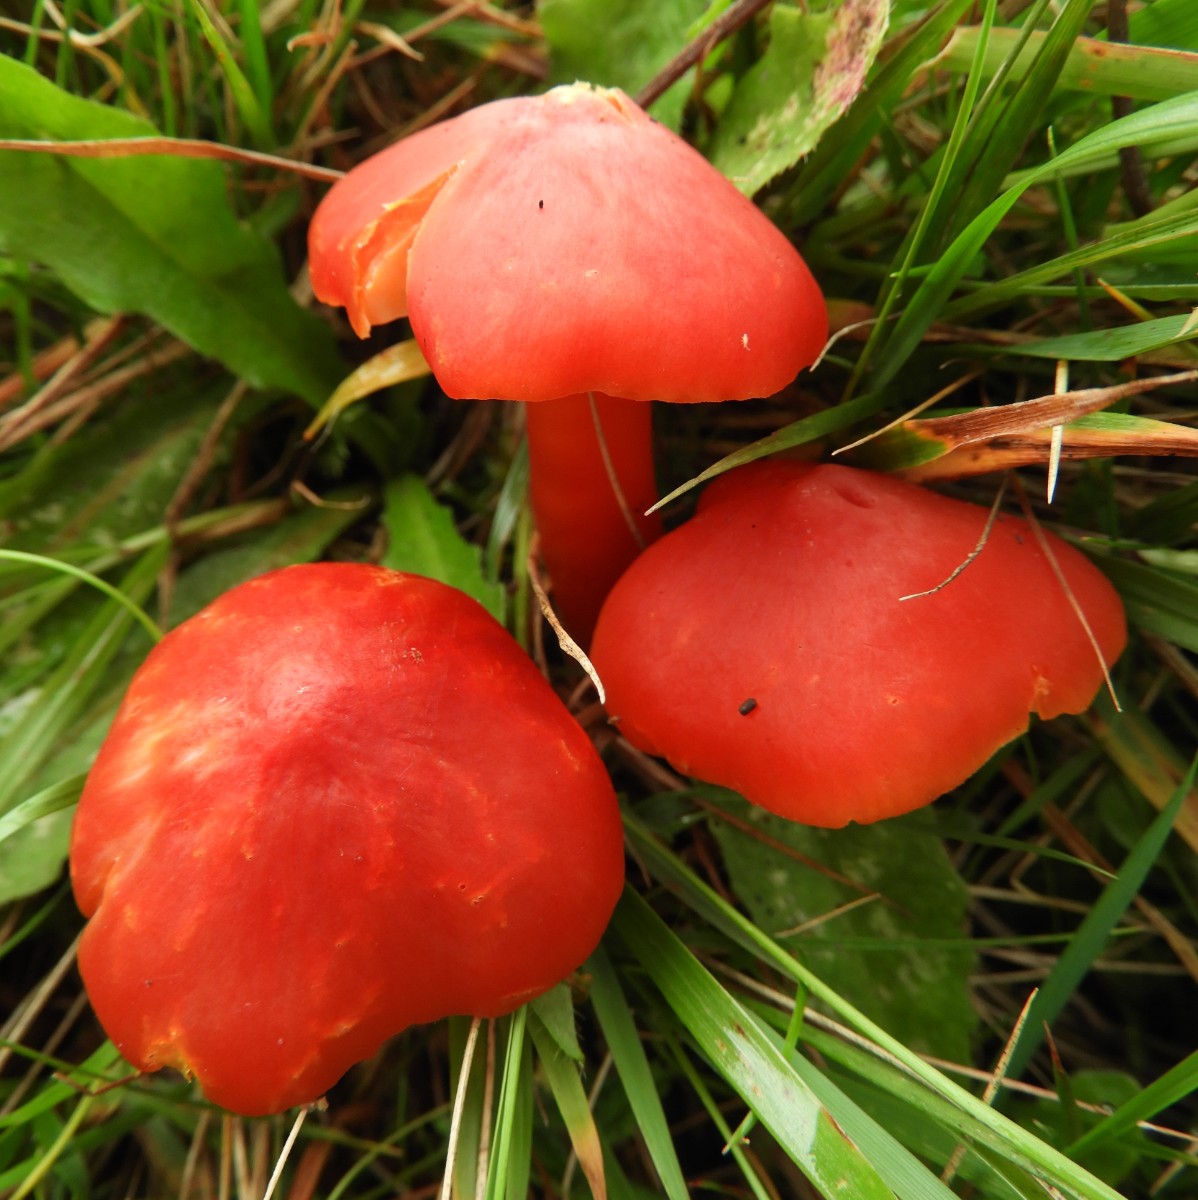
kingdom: Fungi
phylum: Basidiomycota
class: Agaricomycetes
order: Agaricales
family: Hygrophoraceae
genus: Hygrocybe
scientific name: Hygrocybe splendidissima
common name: knaldrød vokshat
